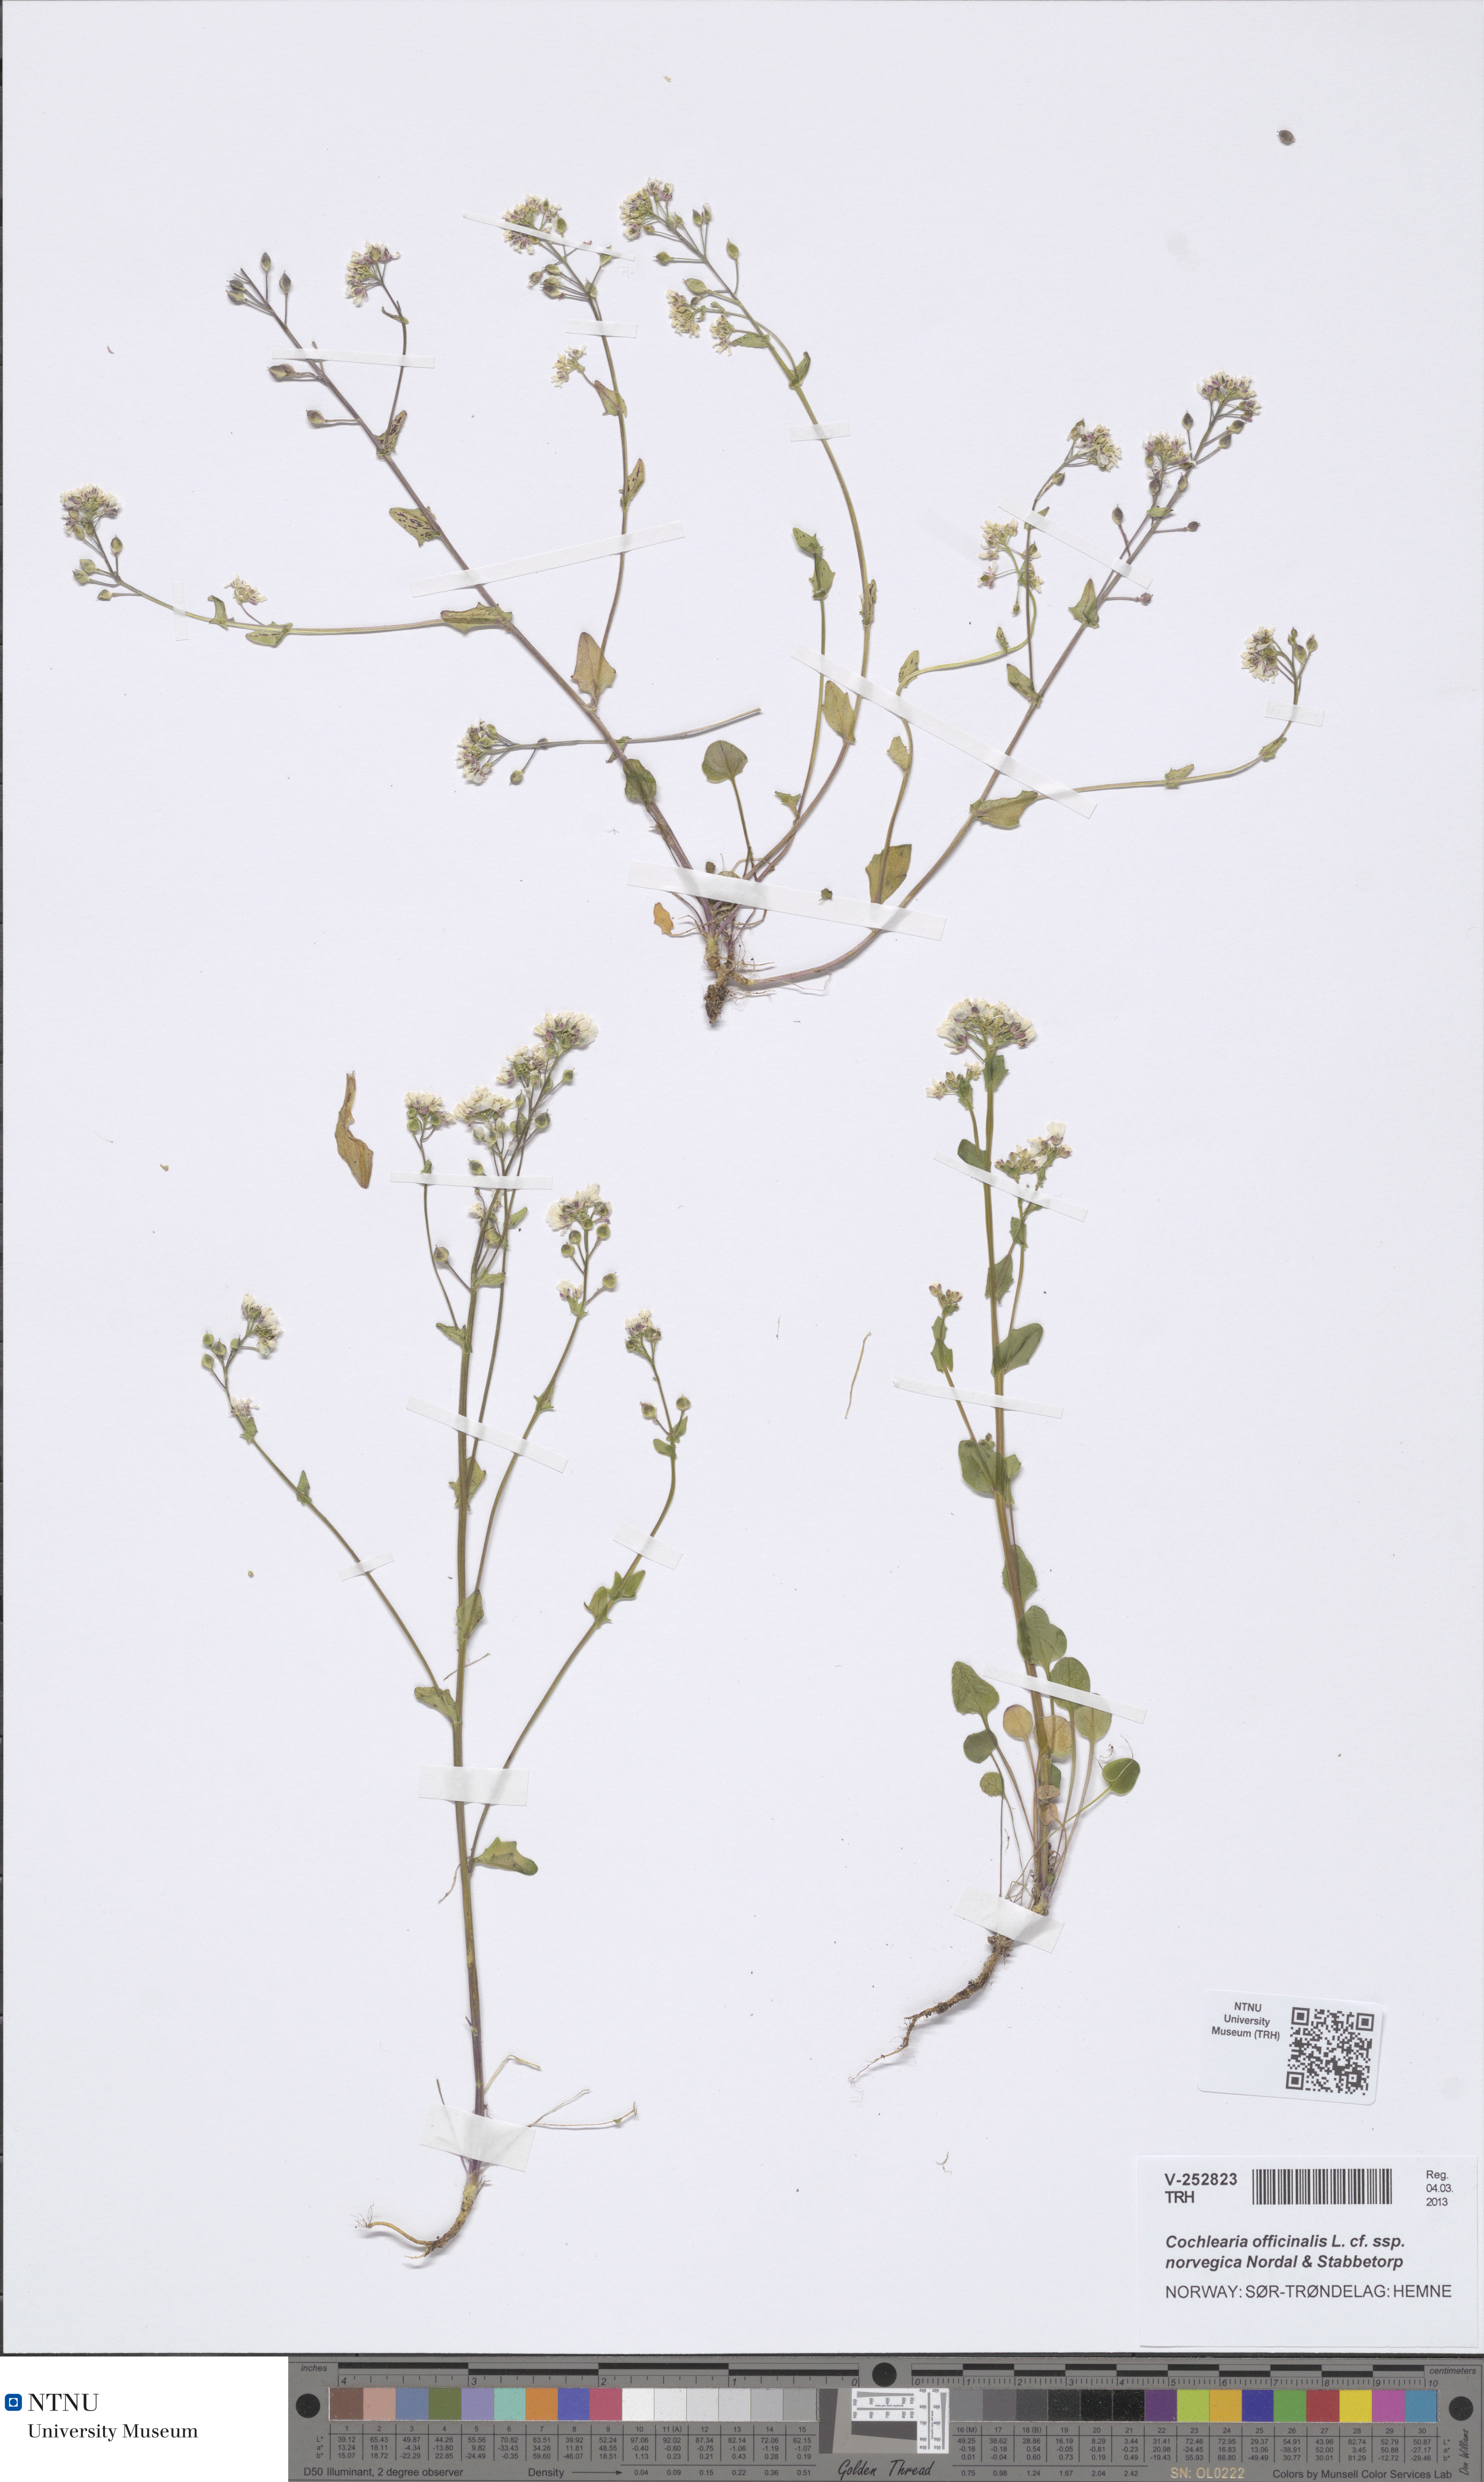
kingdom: Plantae
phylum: Tracheophyta
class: Magnoliopsida
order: Brassicales
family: Brassicaceae
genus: Cochlearia
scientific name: Cochlearia officinalis
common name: Scurvy-grass
